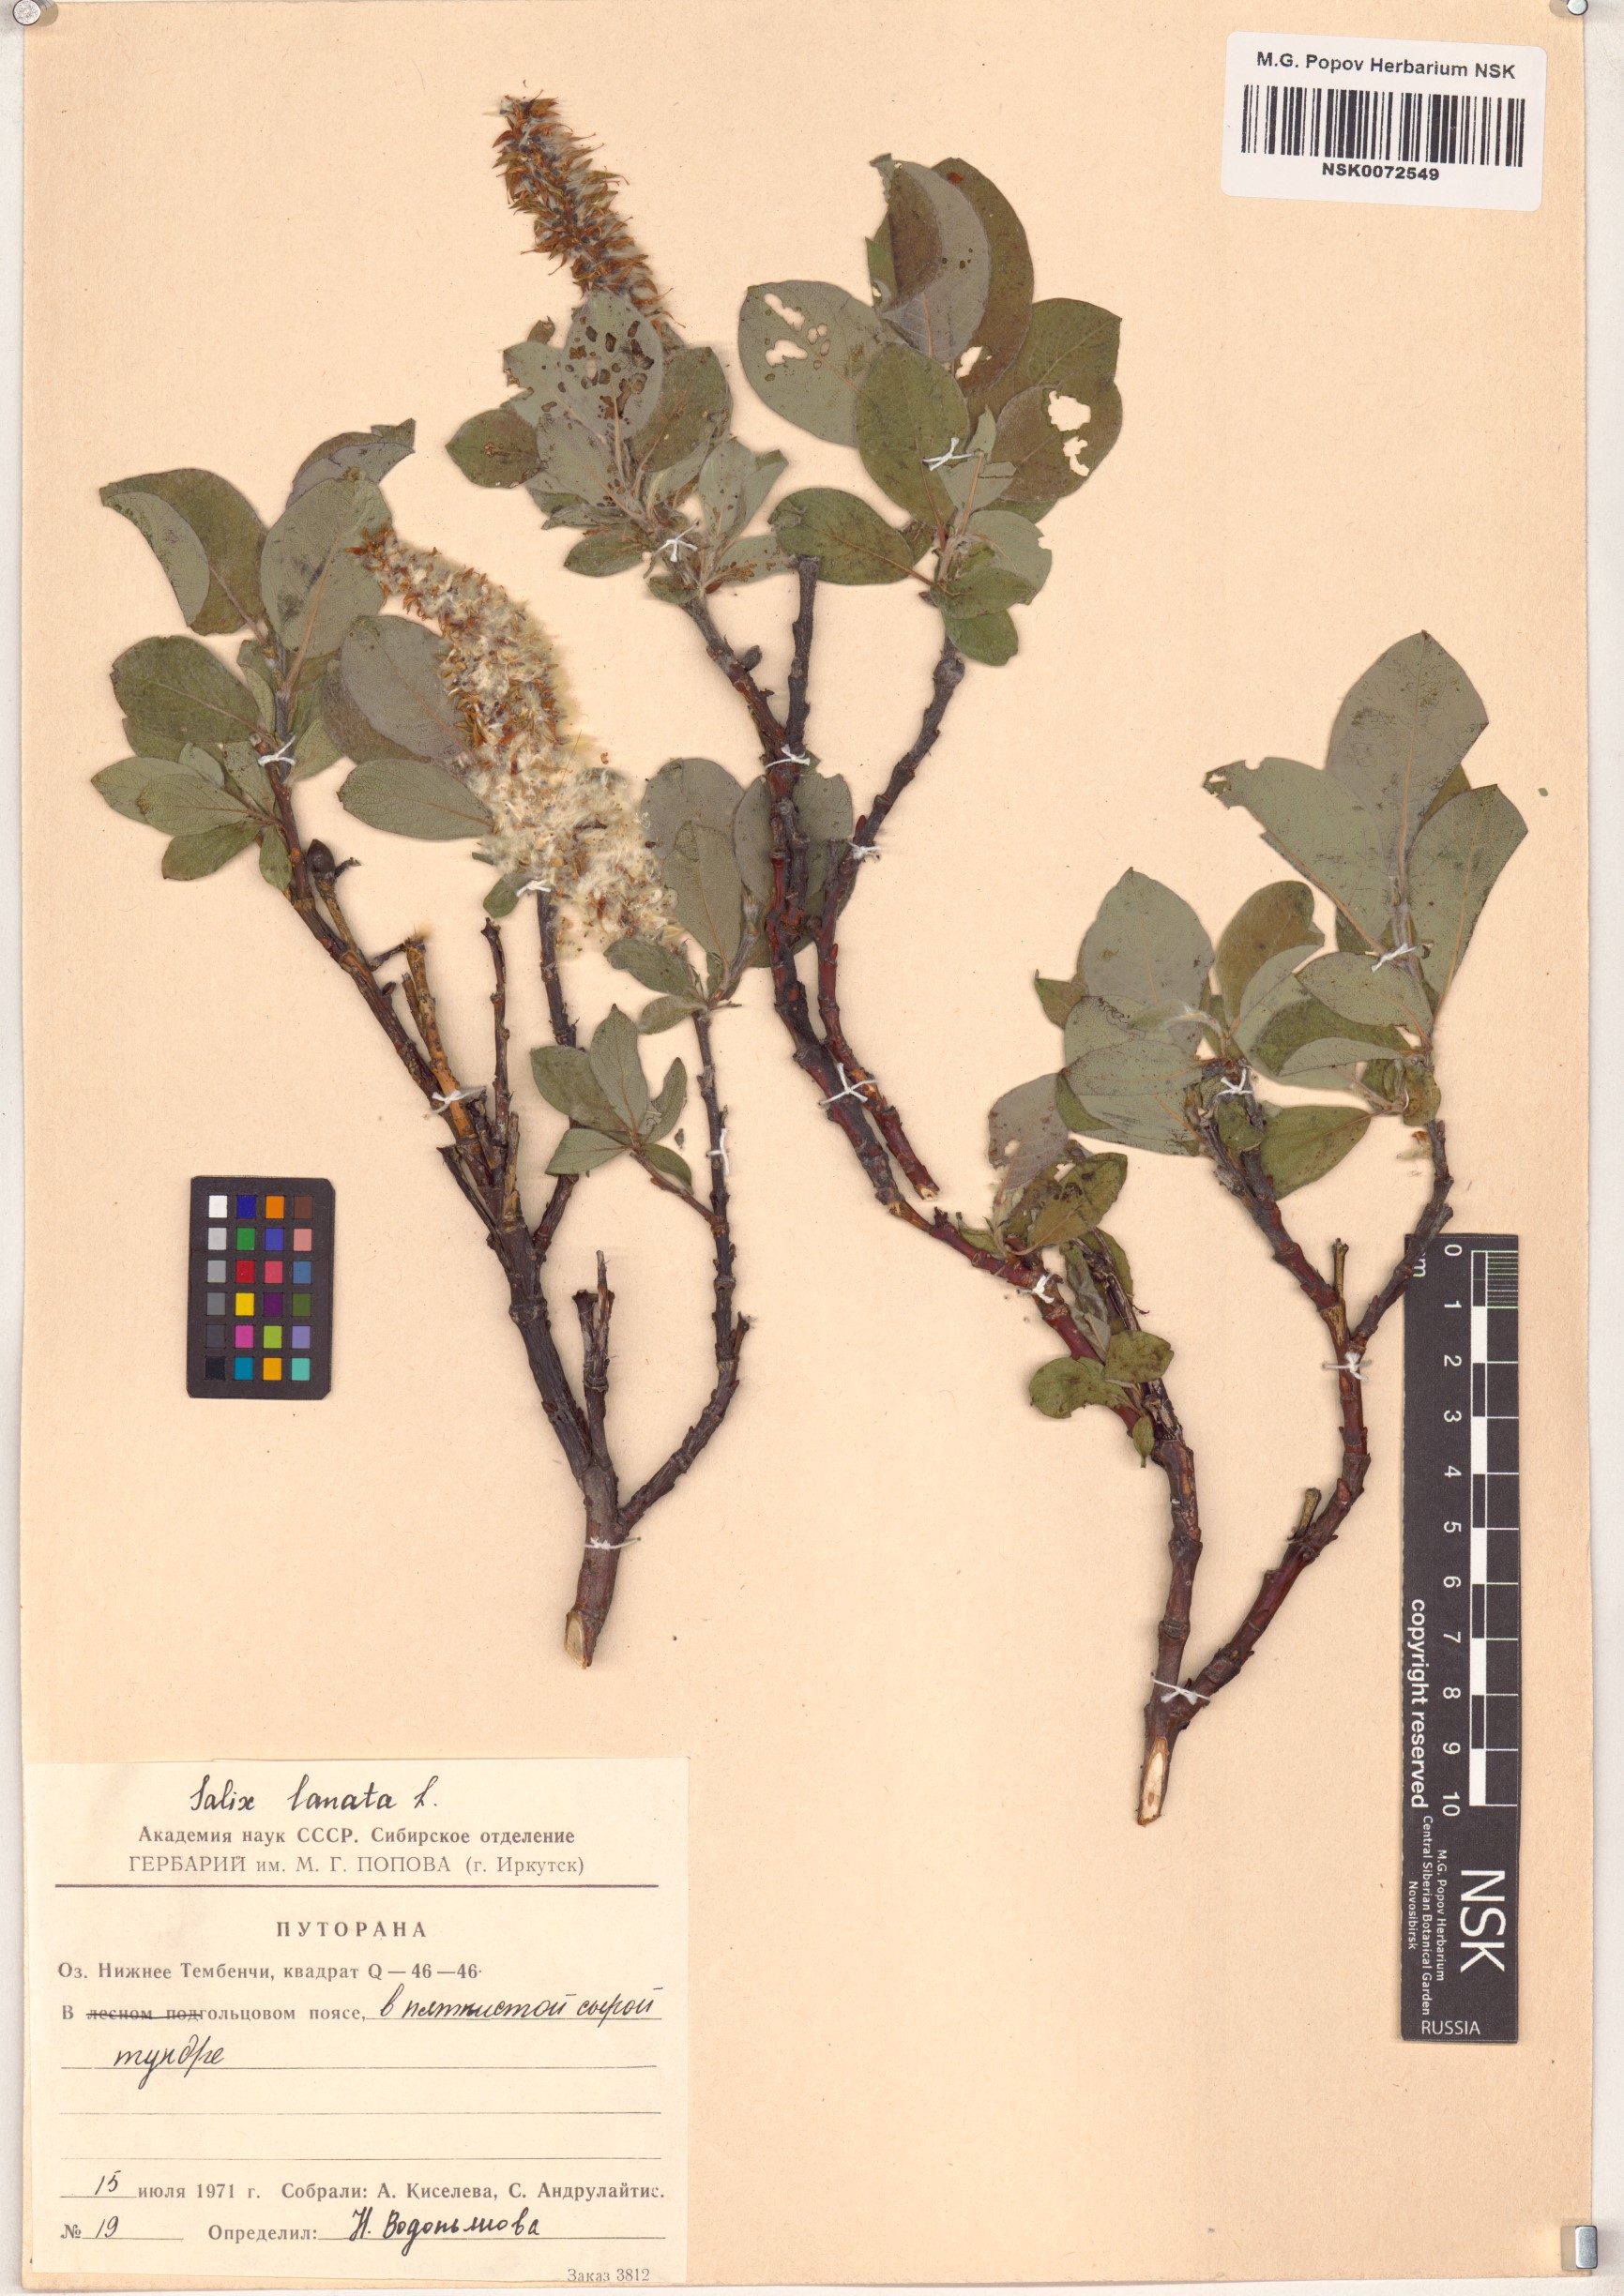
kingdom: Plantae
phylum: Tracheophyta
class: Magnoliopsida
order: Malpighiales
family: Salicaceae
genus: Salix
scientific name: Salix lanata
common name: Woolly willow
